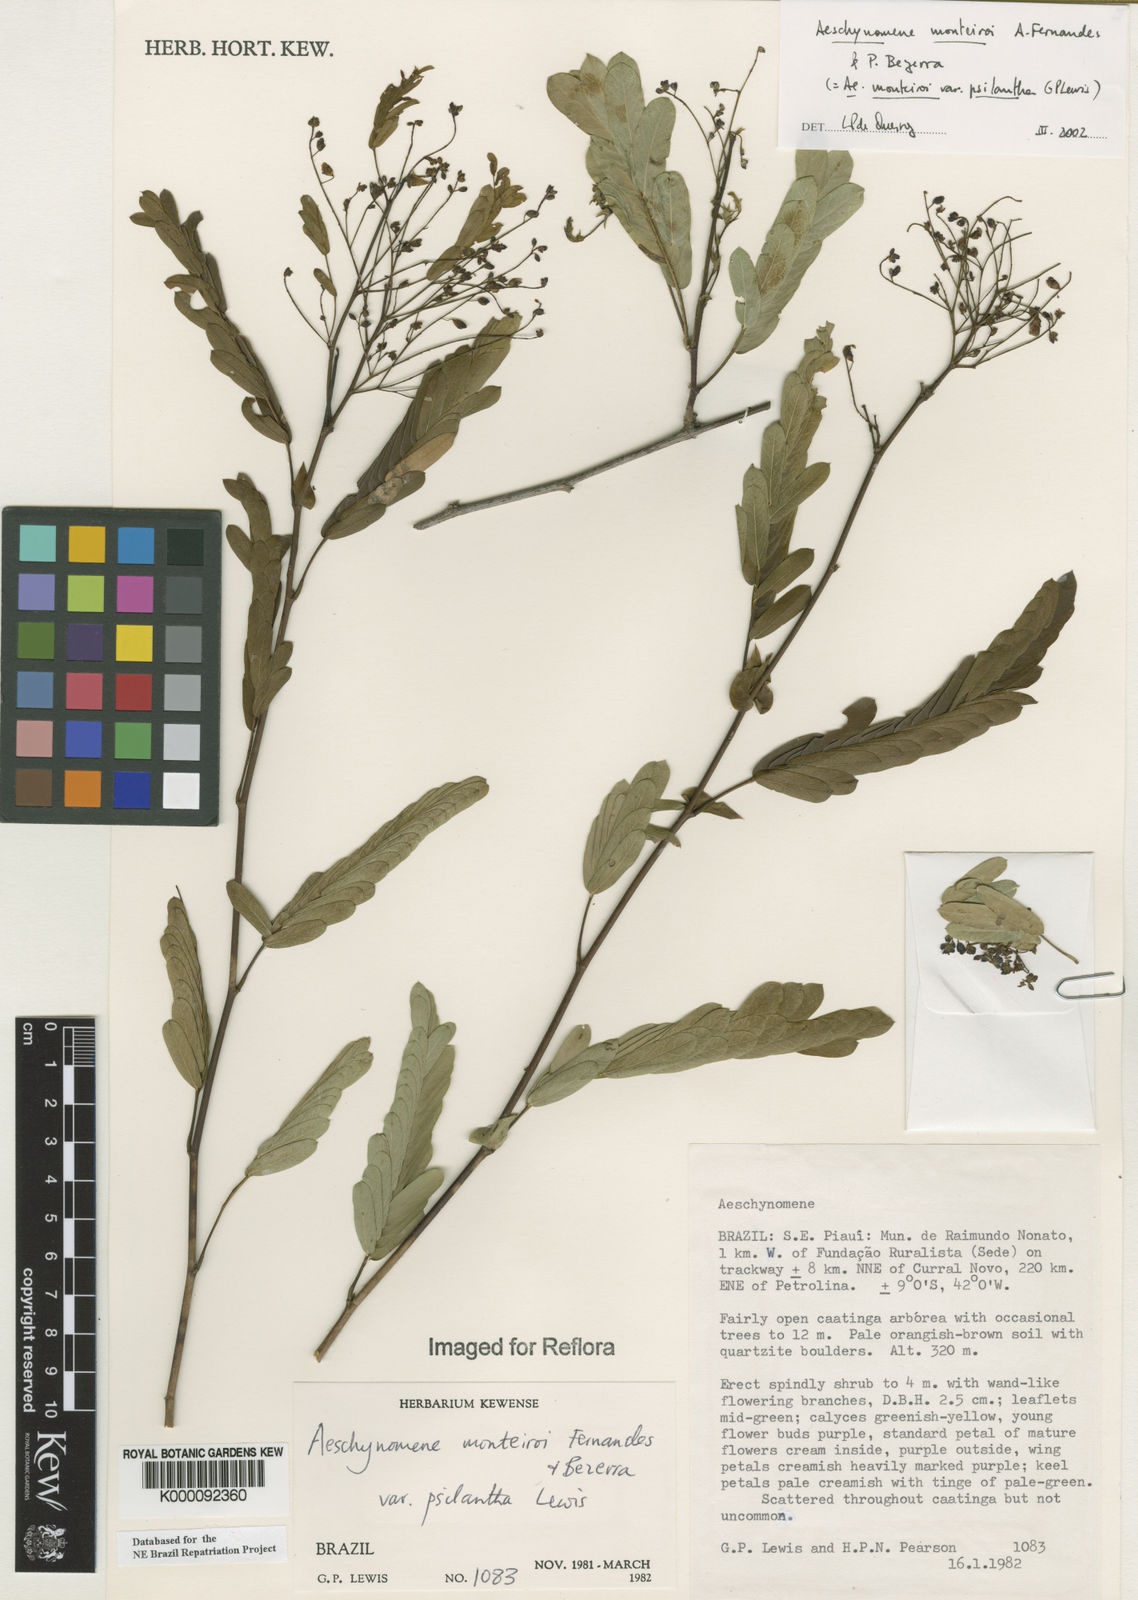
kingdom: Plantae
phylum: Tracheophyta
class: Magnoliopsida
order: Fabales
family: Fabaceae
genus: Ctenodon
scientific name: Ctenodon monteiroi
